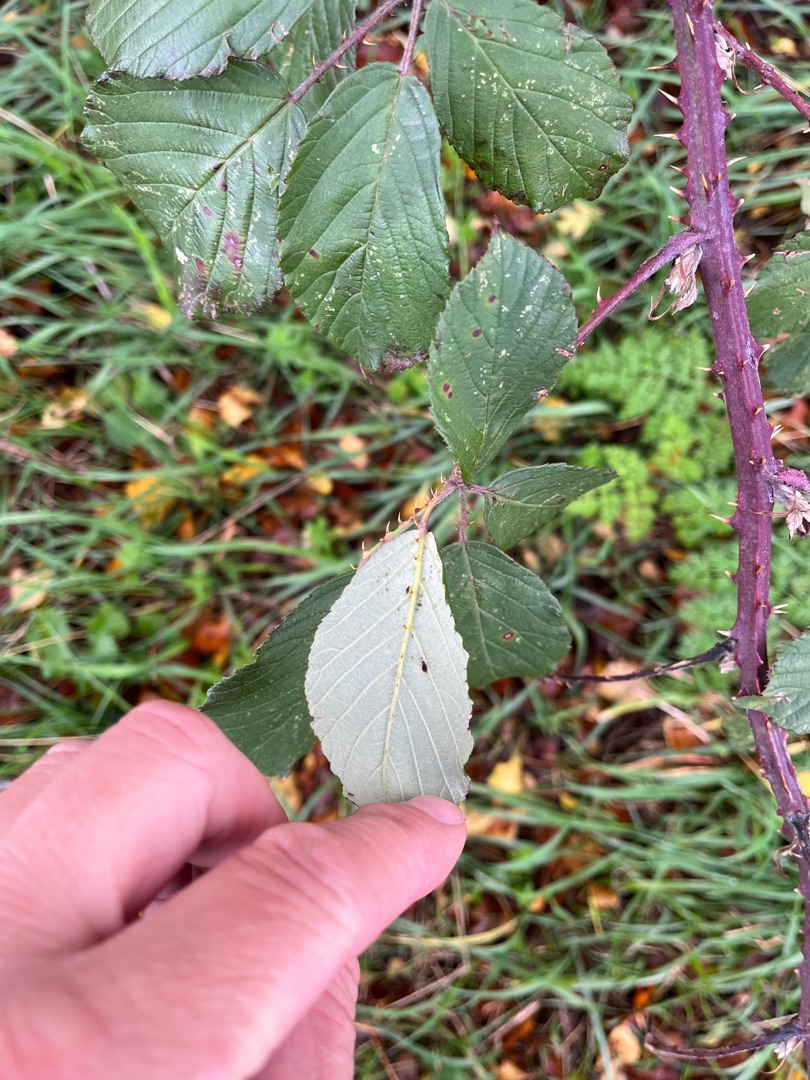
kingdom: Plantae
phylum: Tracheophyta
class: Magnoliopsida
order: Rosales
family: Rosaceae
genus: Rubus
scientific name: Rubus armeniacus
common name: Armensk brombær
